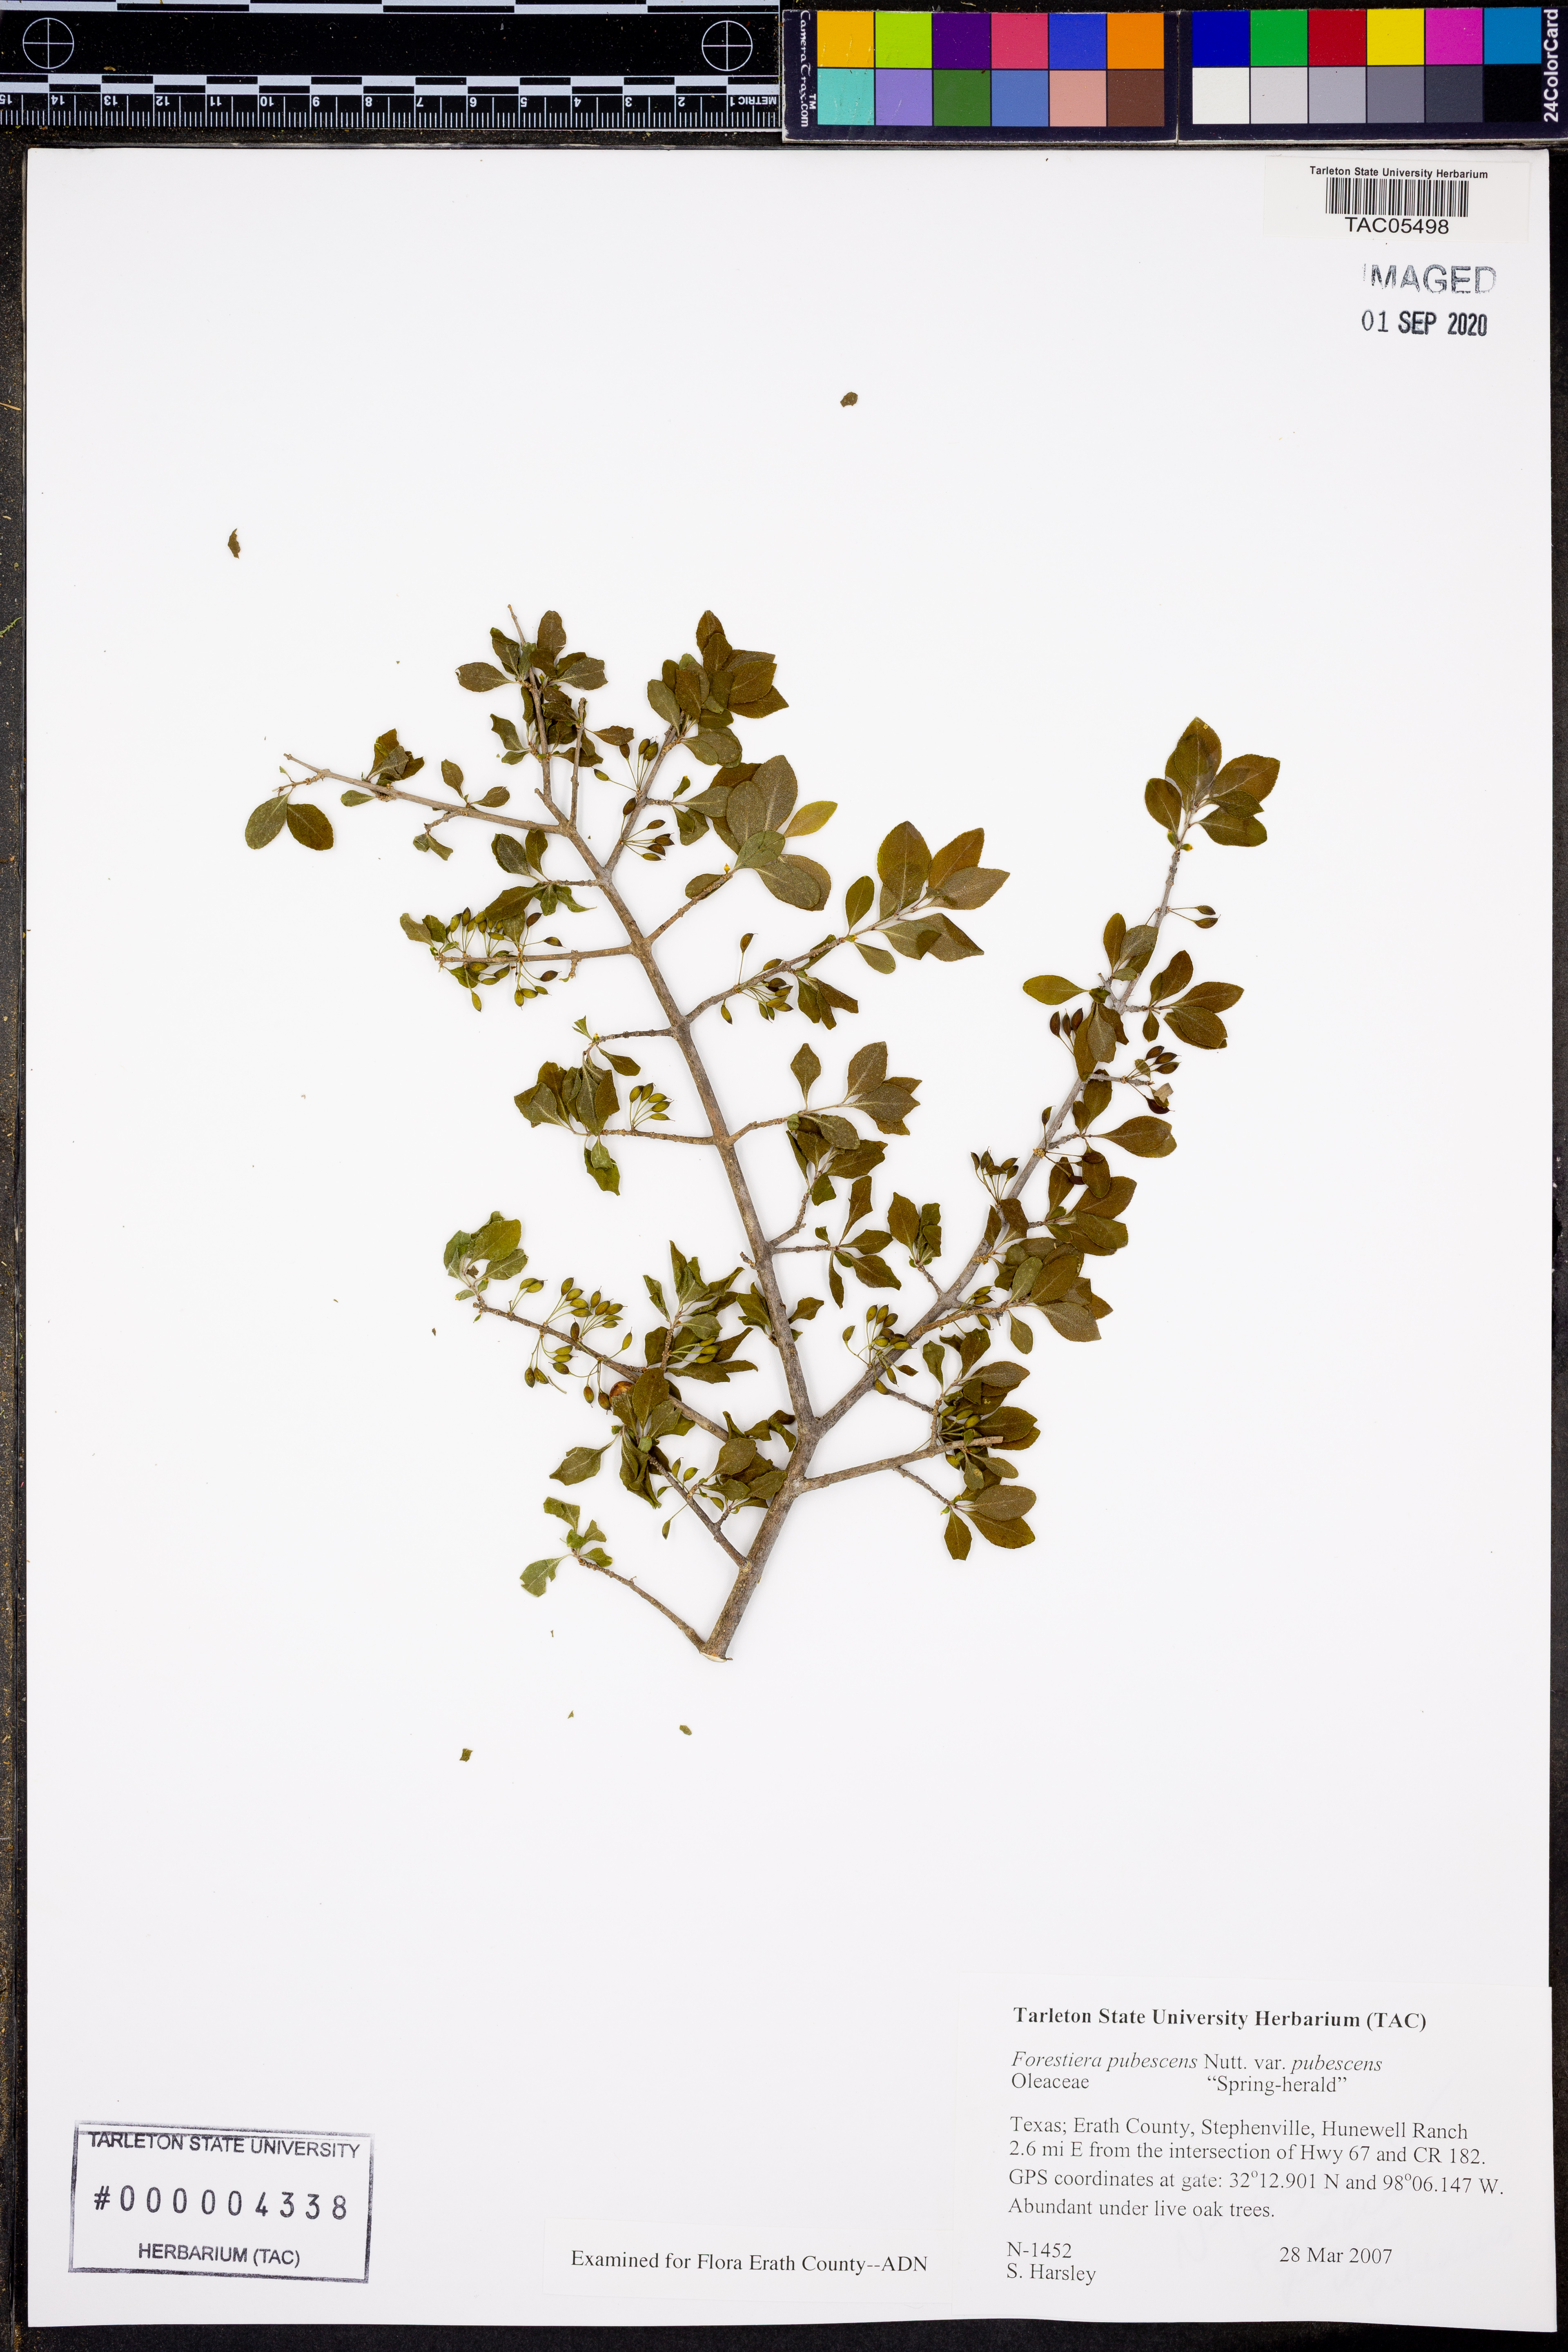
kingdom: Plantae
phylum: Tracheophyta
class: Magnoliopsida
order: Lamiales
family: Oleaceae
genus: Forestiera
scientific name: Forestiera pubescens
